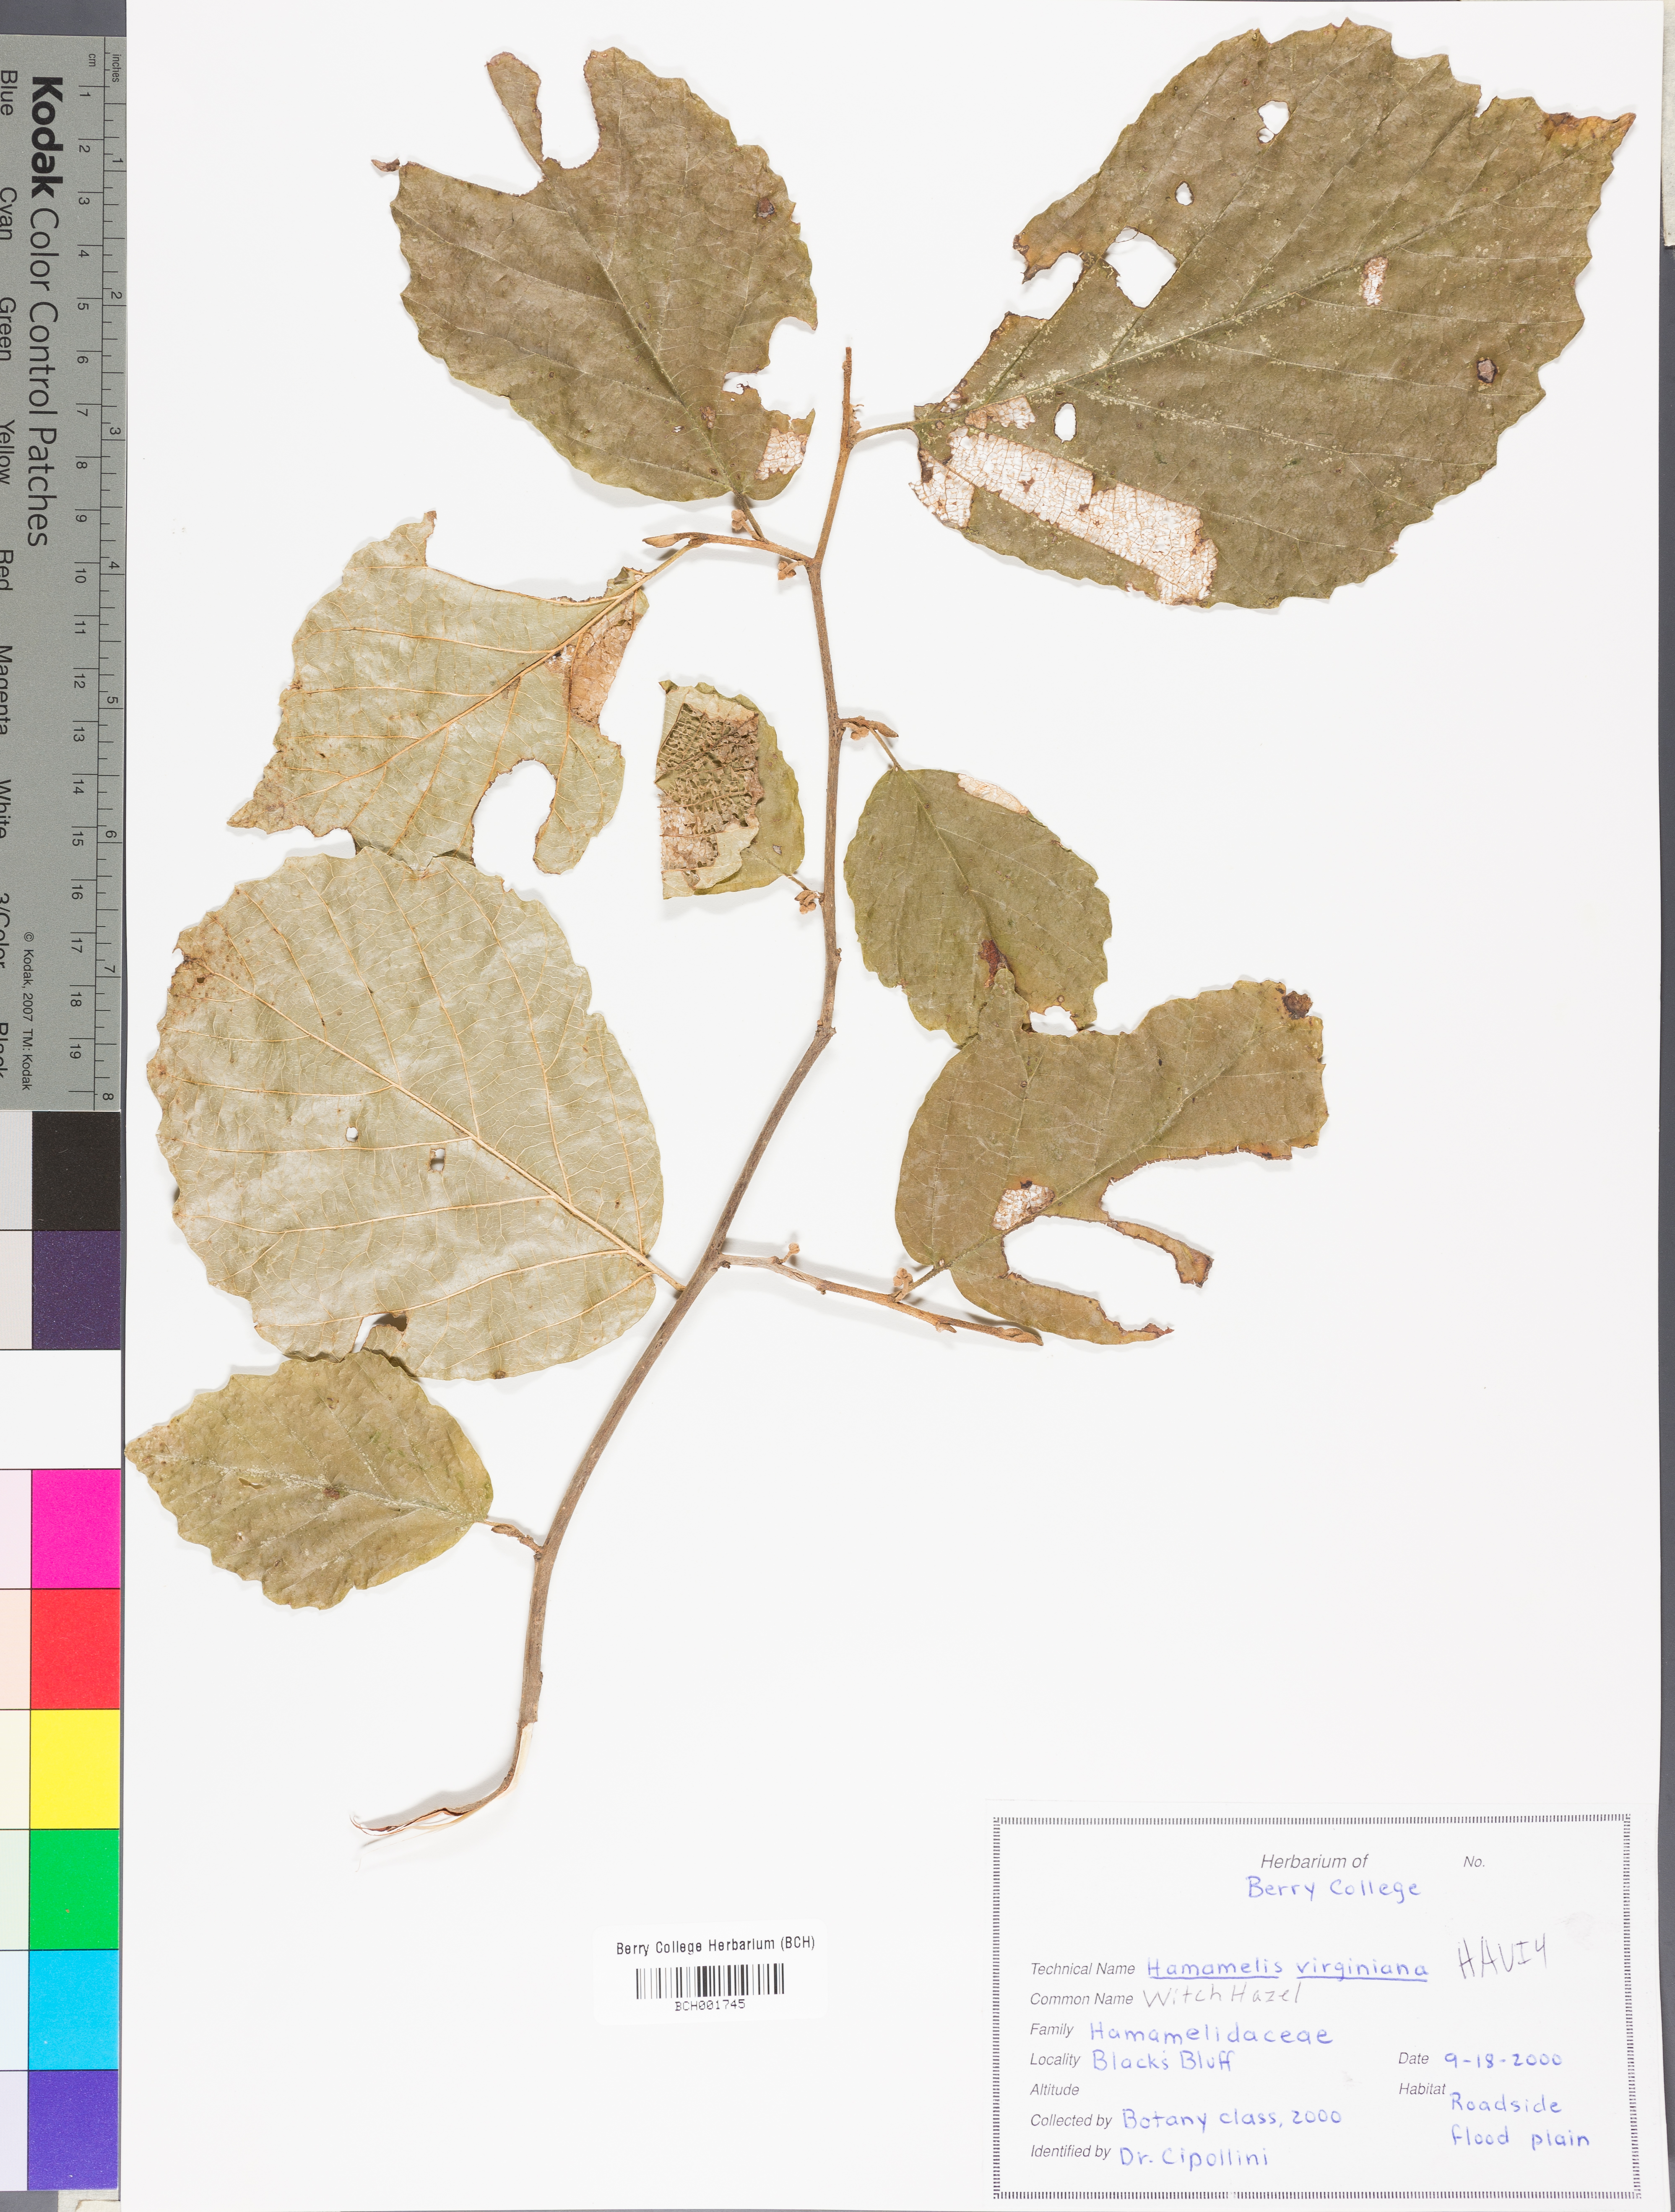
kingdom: Plantae
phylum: Tracheophyta
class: Magnoliopsida
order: Saxifragales
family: Hamamelidaceae
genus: Hamamelis
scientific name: Hamamelis virginiana
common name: Witch-hazel
